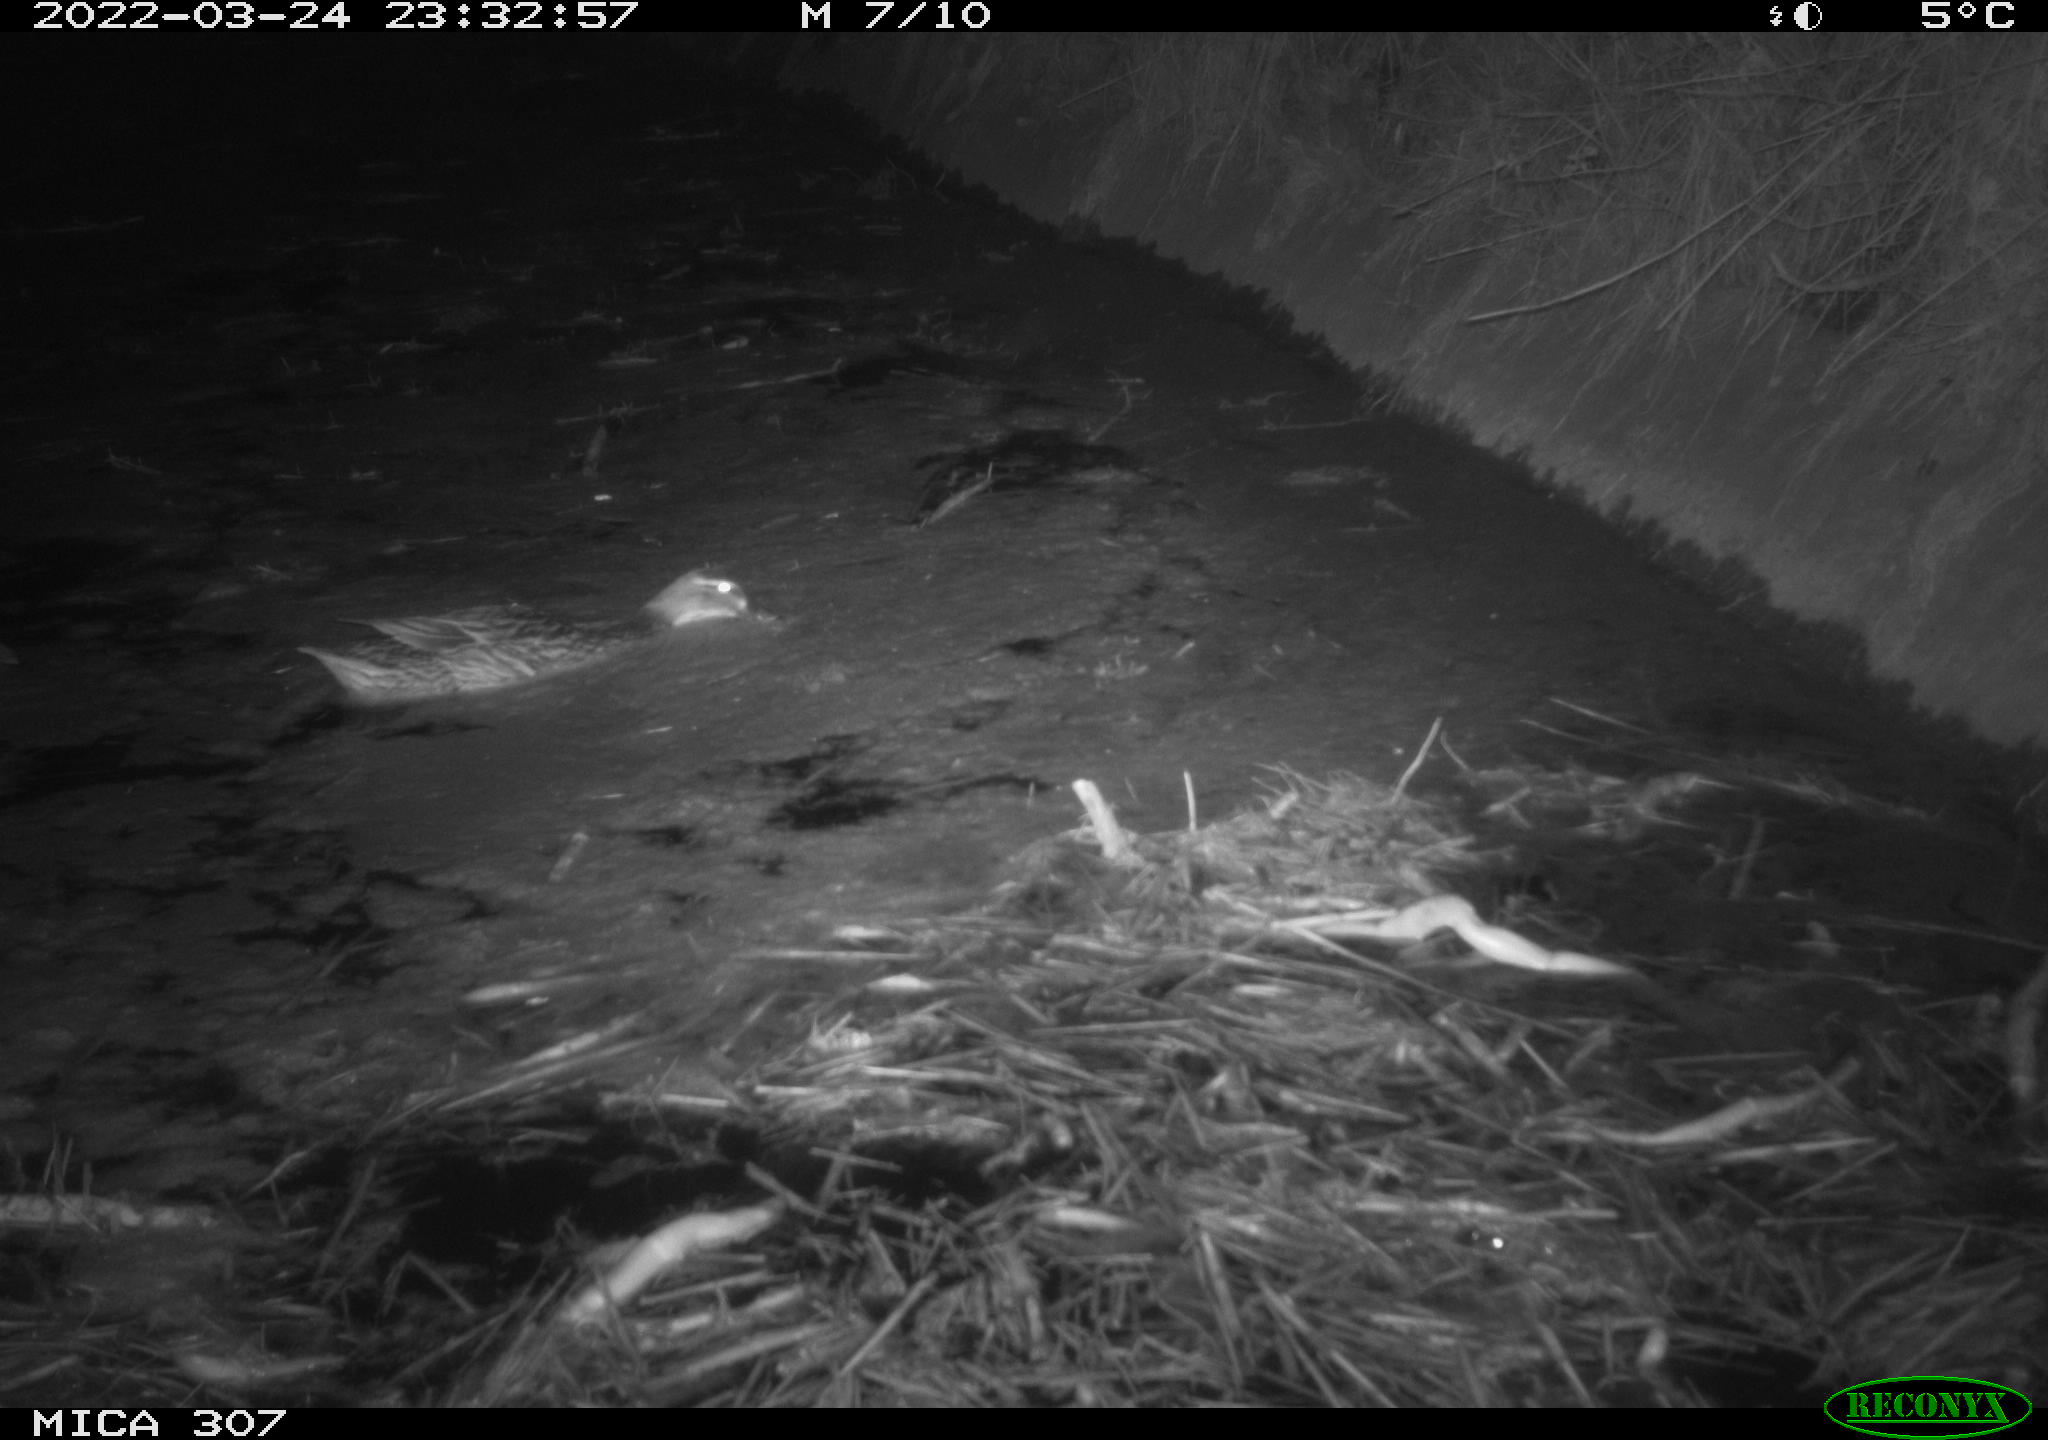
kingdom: Animalia
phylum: Chordata
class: Aves
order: Anseriformes
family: Anatidae
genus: Anas
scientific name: Anas platyrhynchos
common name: Mallard
